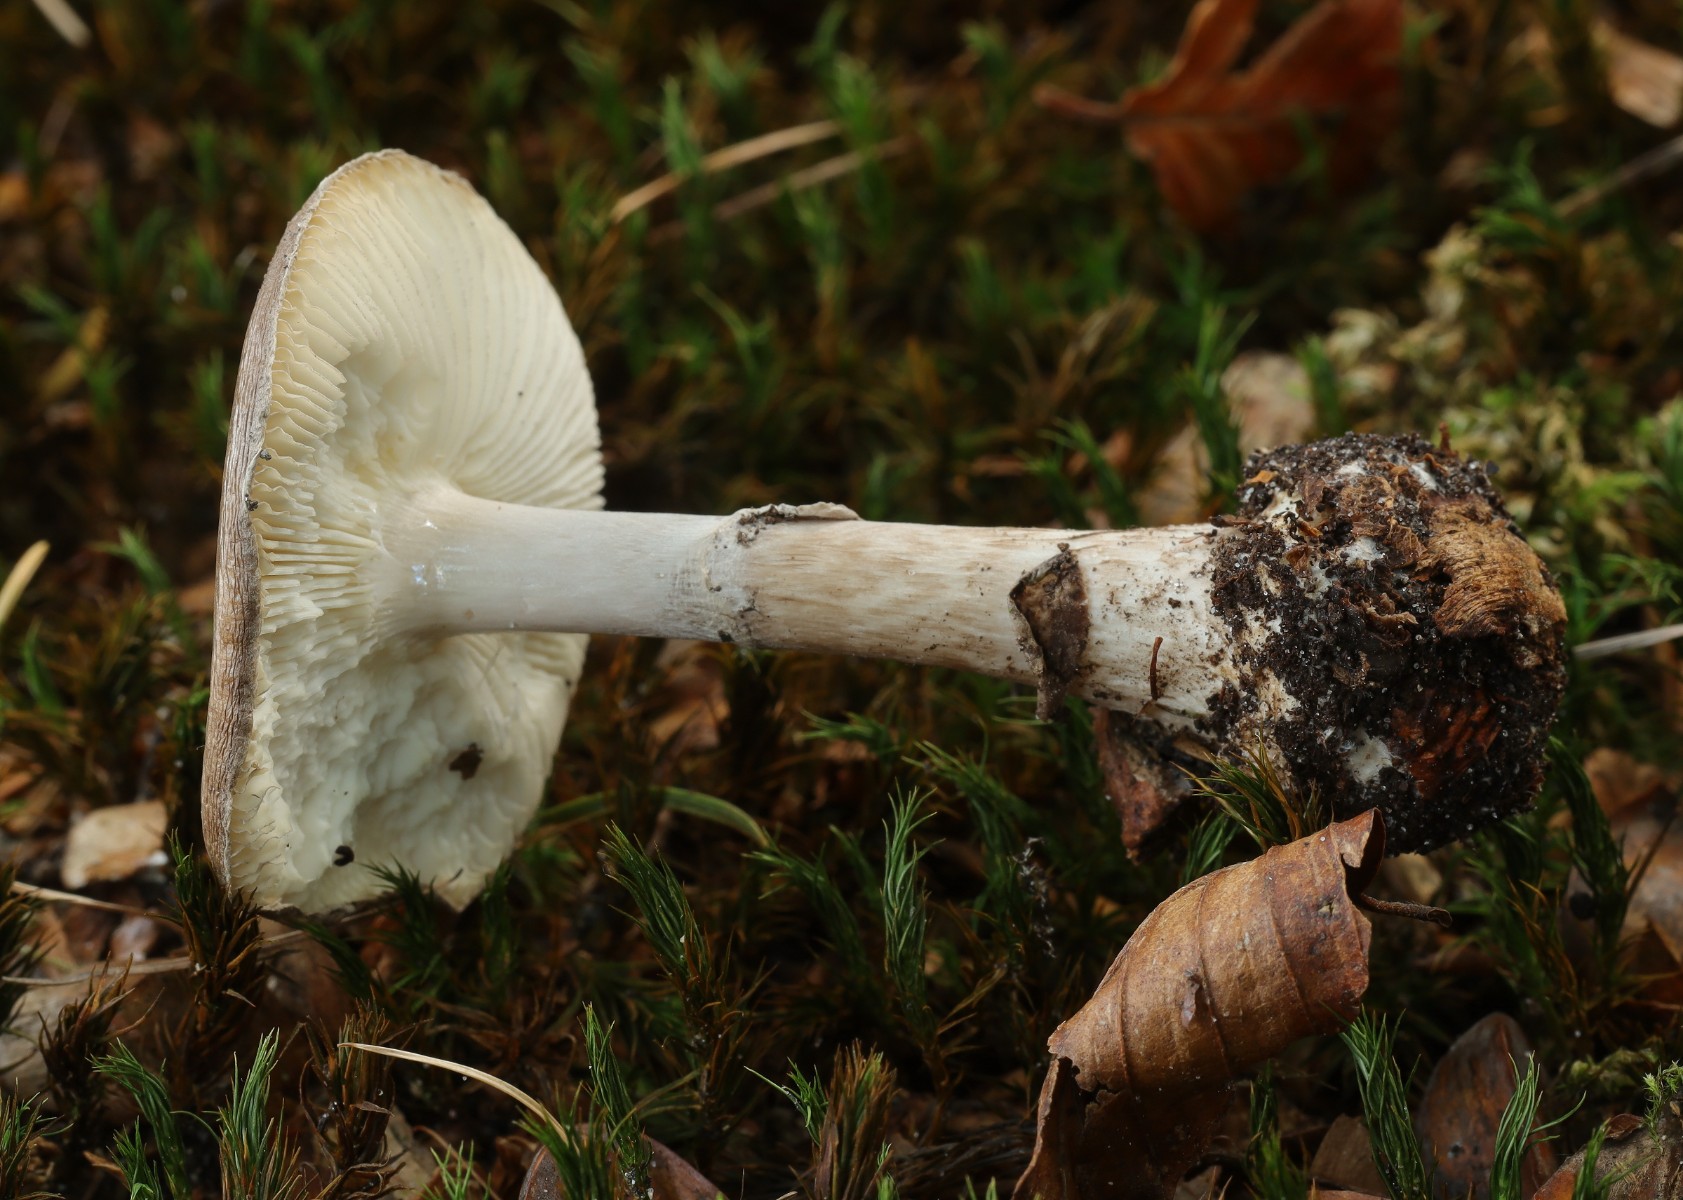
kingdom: Fungi
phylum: Basidiomycota
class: Agaricomycetes
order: Agaricales
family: Amanitaceae
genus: Amanita
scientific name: Amanita porphyria
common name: porfyr-fluesvamp
